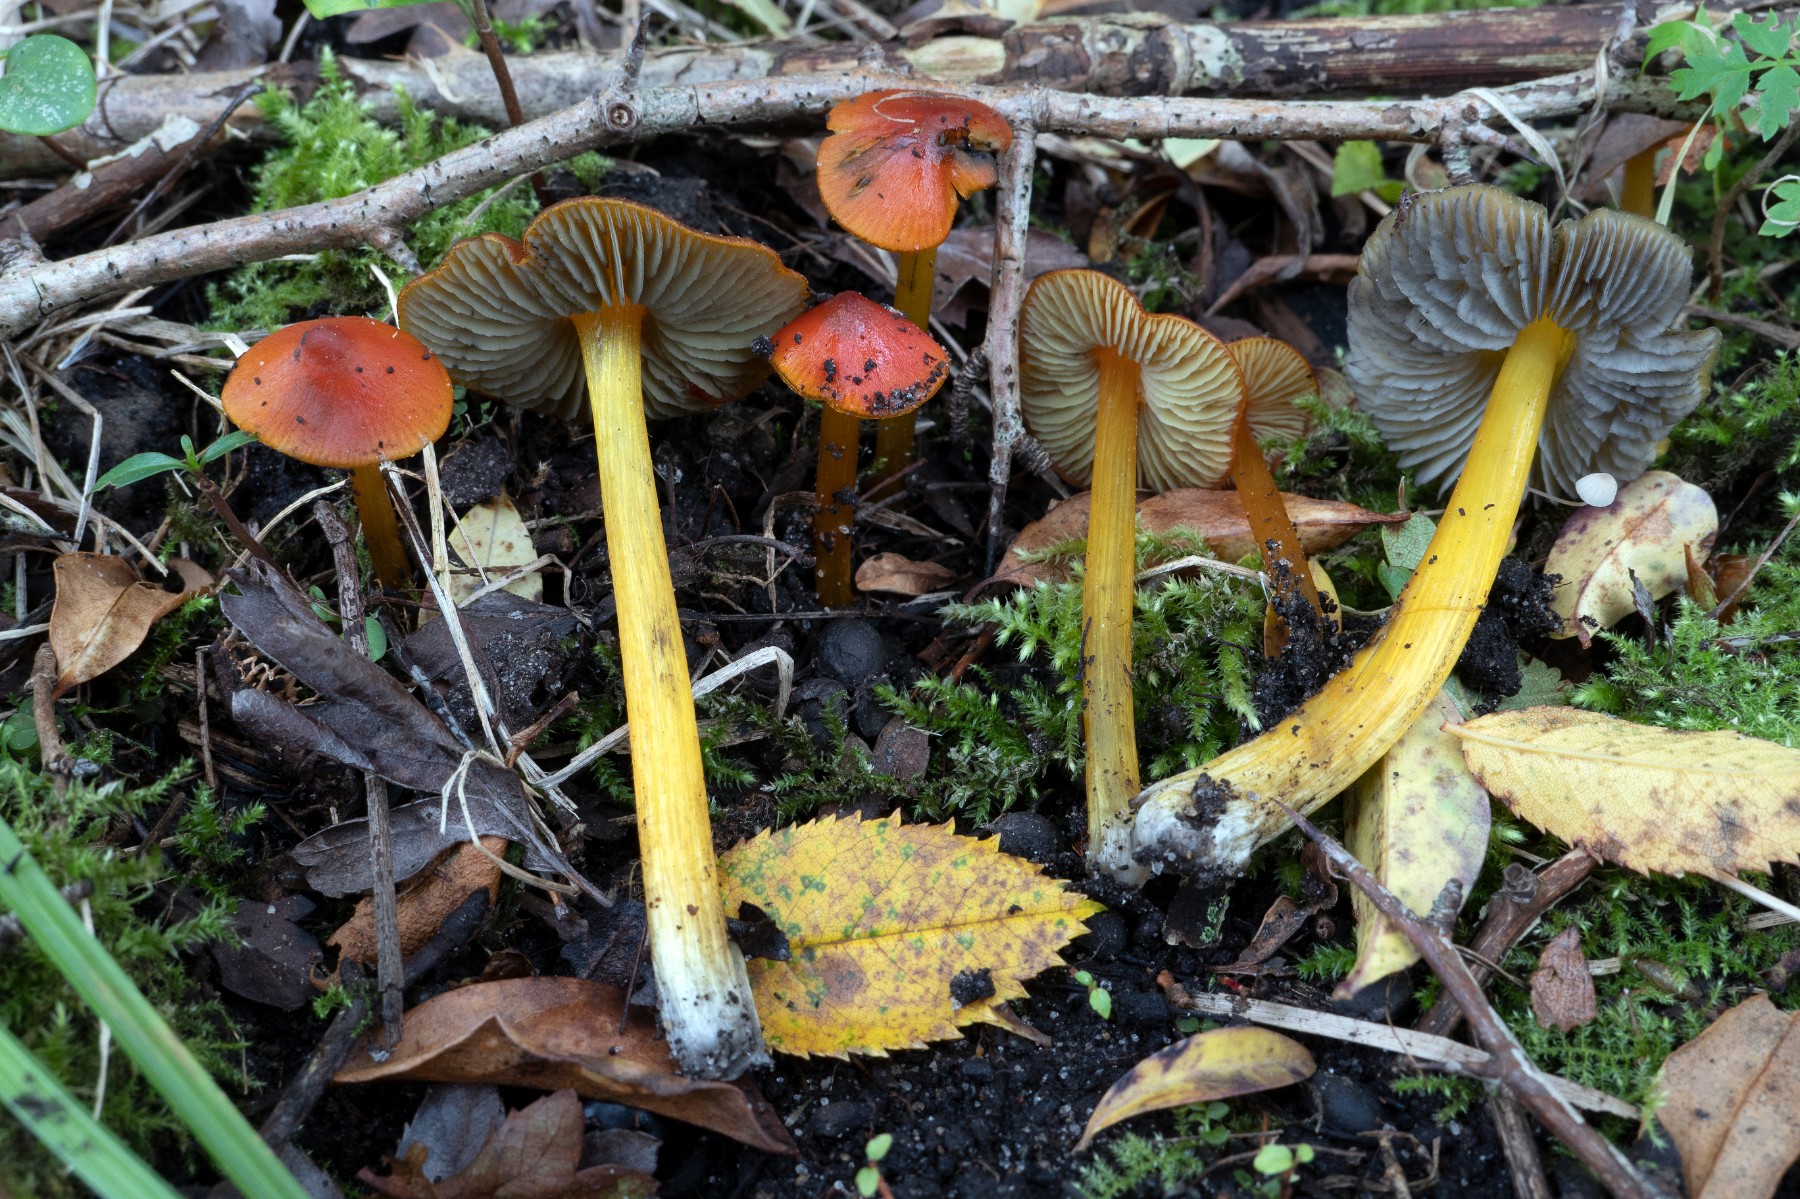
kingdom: Fungi
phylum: Basidiomycota
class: Agaricomycetes
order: Agaricales
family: Hygrophoraceae
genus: Hygrocybe
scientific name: Hygrocybe conica
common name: kegle-vokshat
